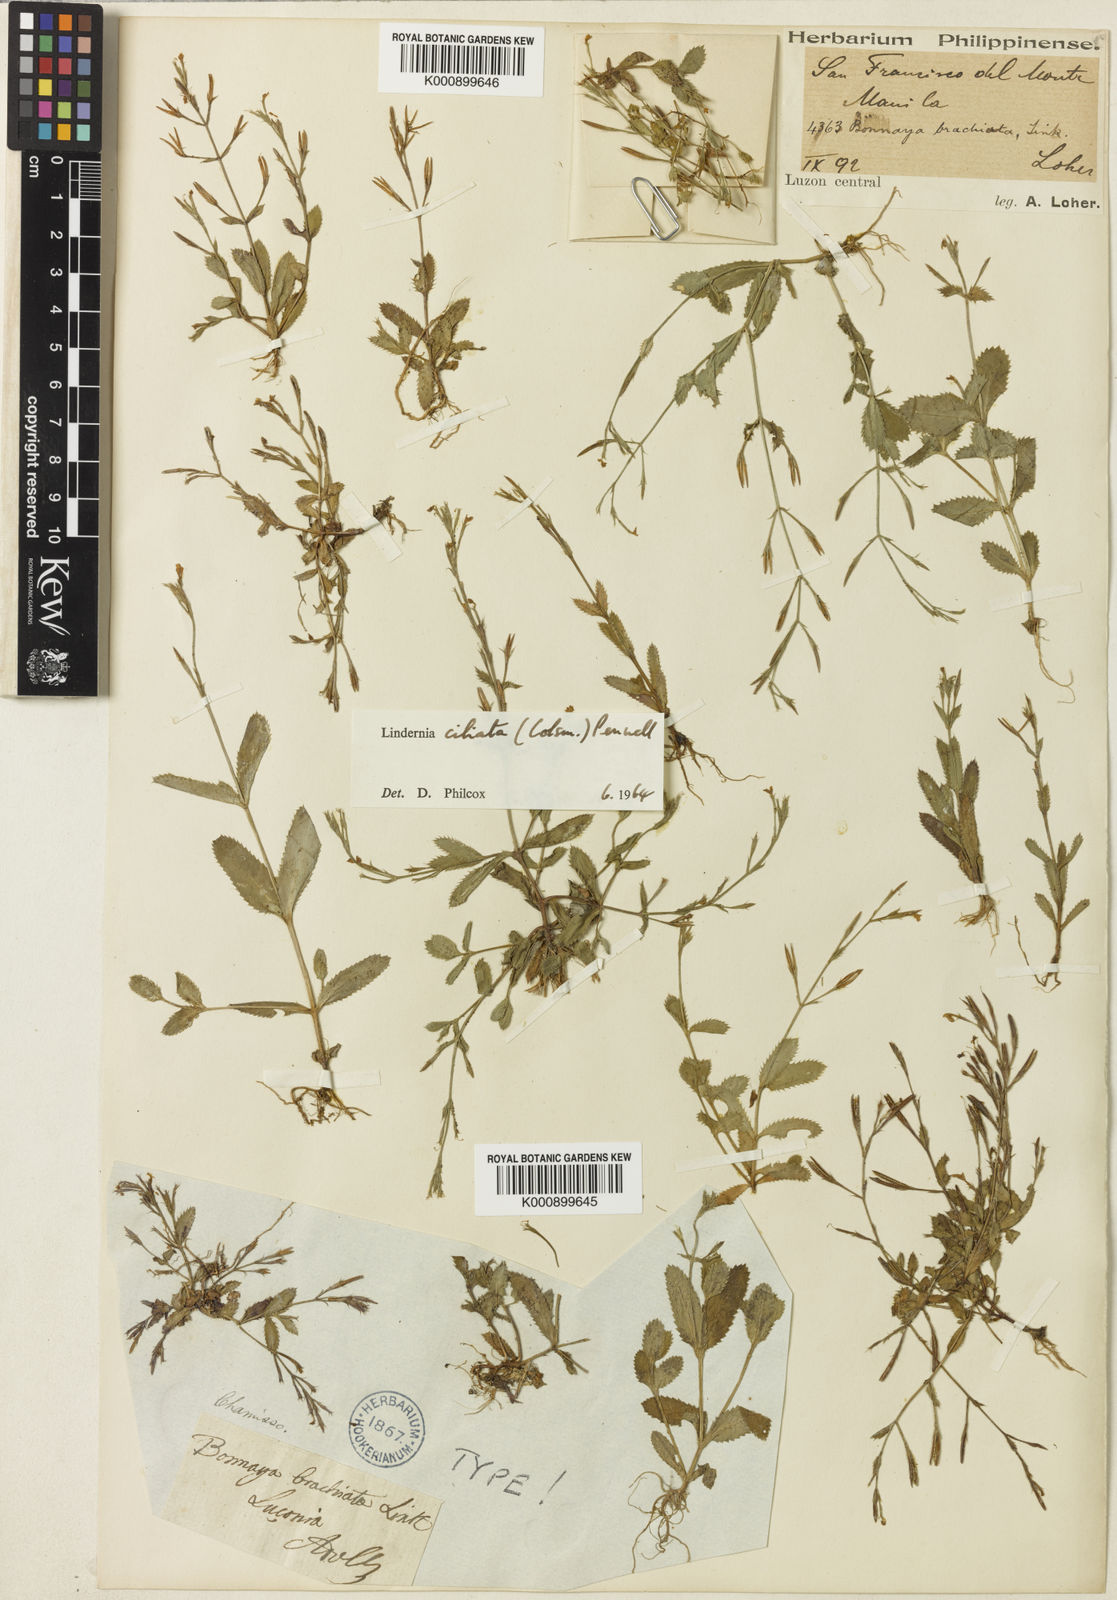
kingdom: Plantae
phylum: Tracheophyta
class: Magnoliopsida
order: Lamiales
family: Linderniaceae
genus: Bonnaya
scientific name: Bonnaya ciliata
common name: Hairy slitwort
